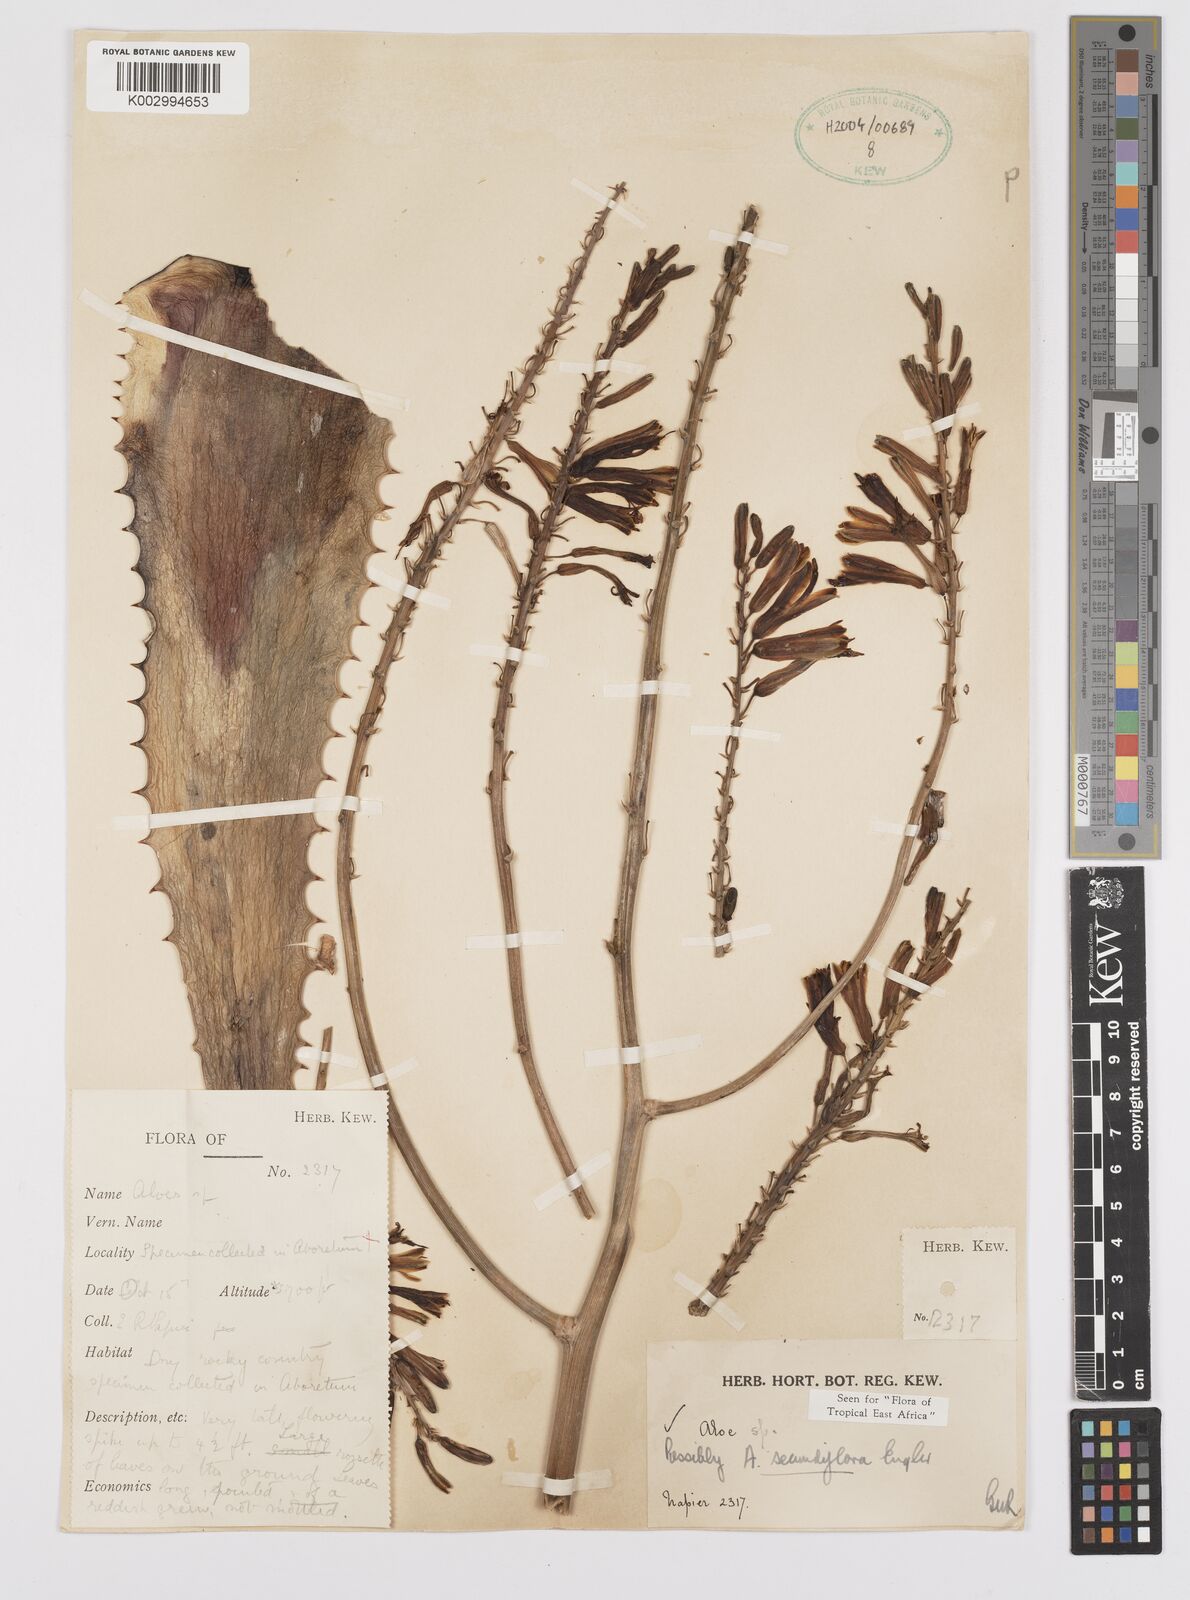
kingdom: Plantae
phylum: Tracheophyta
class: Liliopsida
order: Asparagales
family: Asphodelaceae
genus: Aloe
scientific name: Aloe secundiflora
